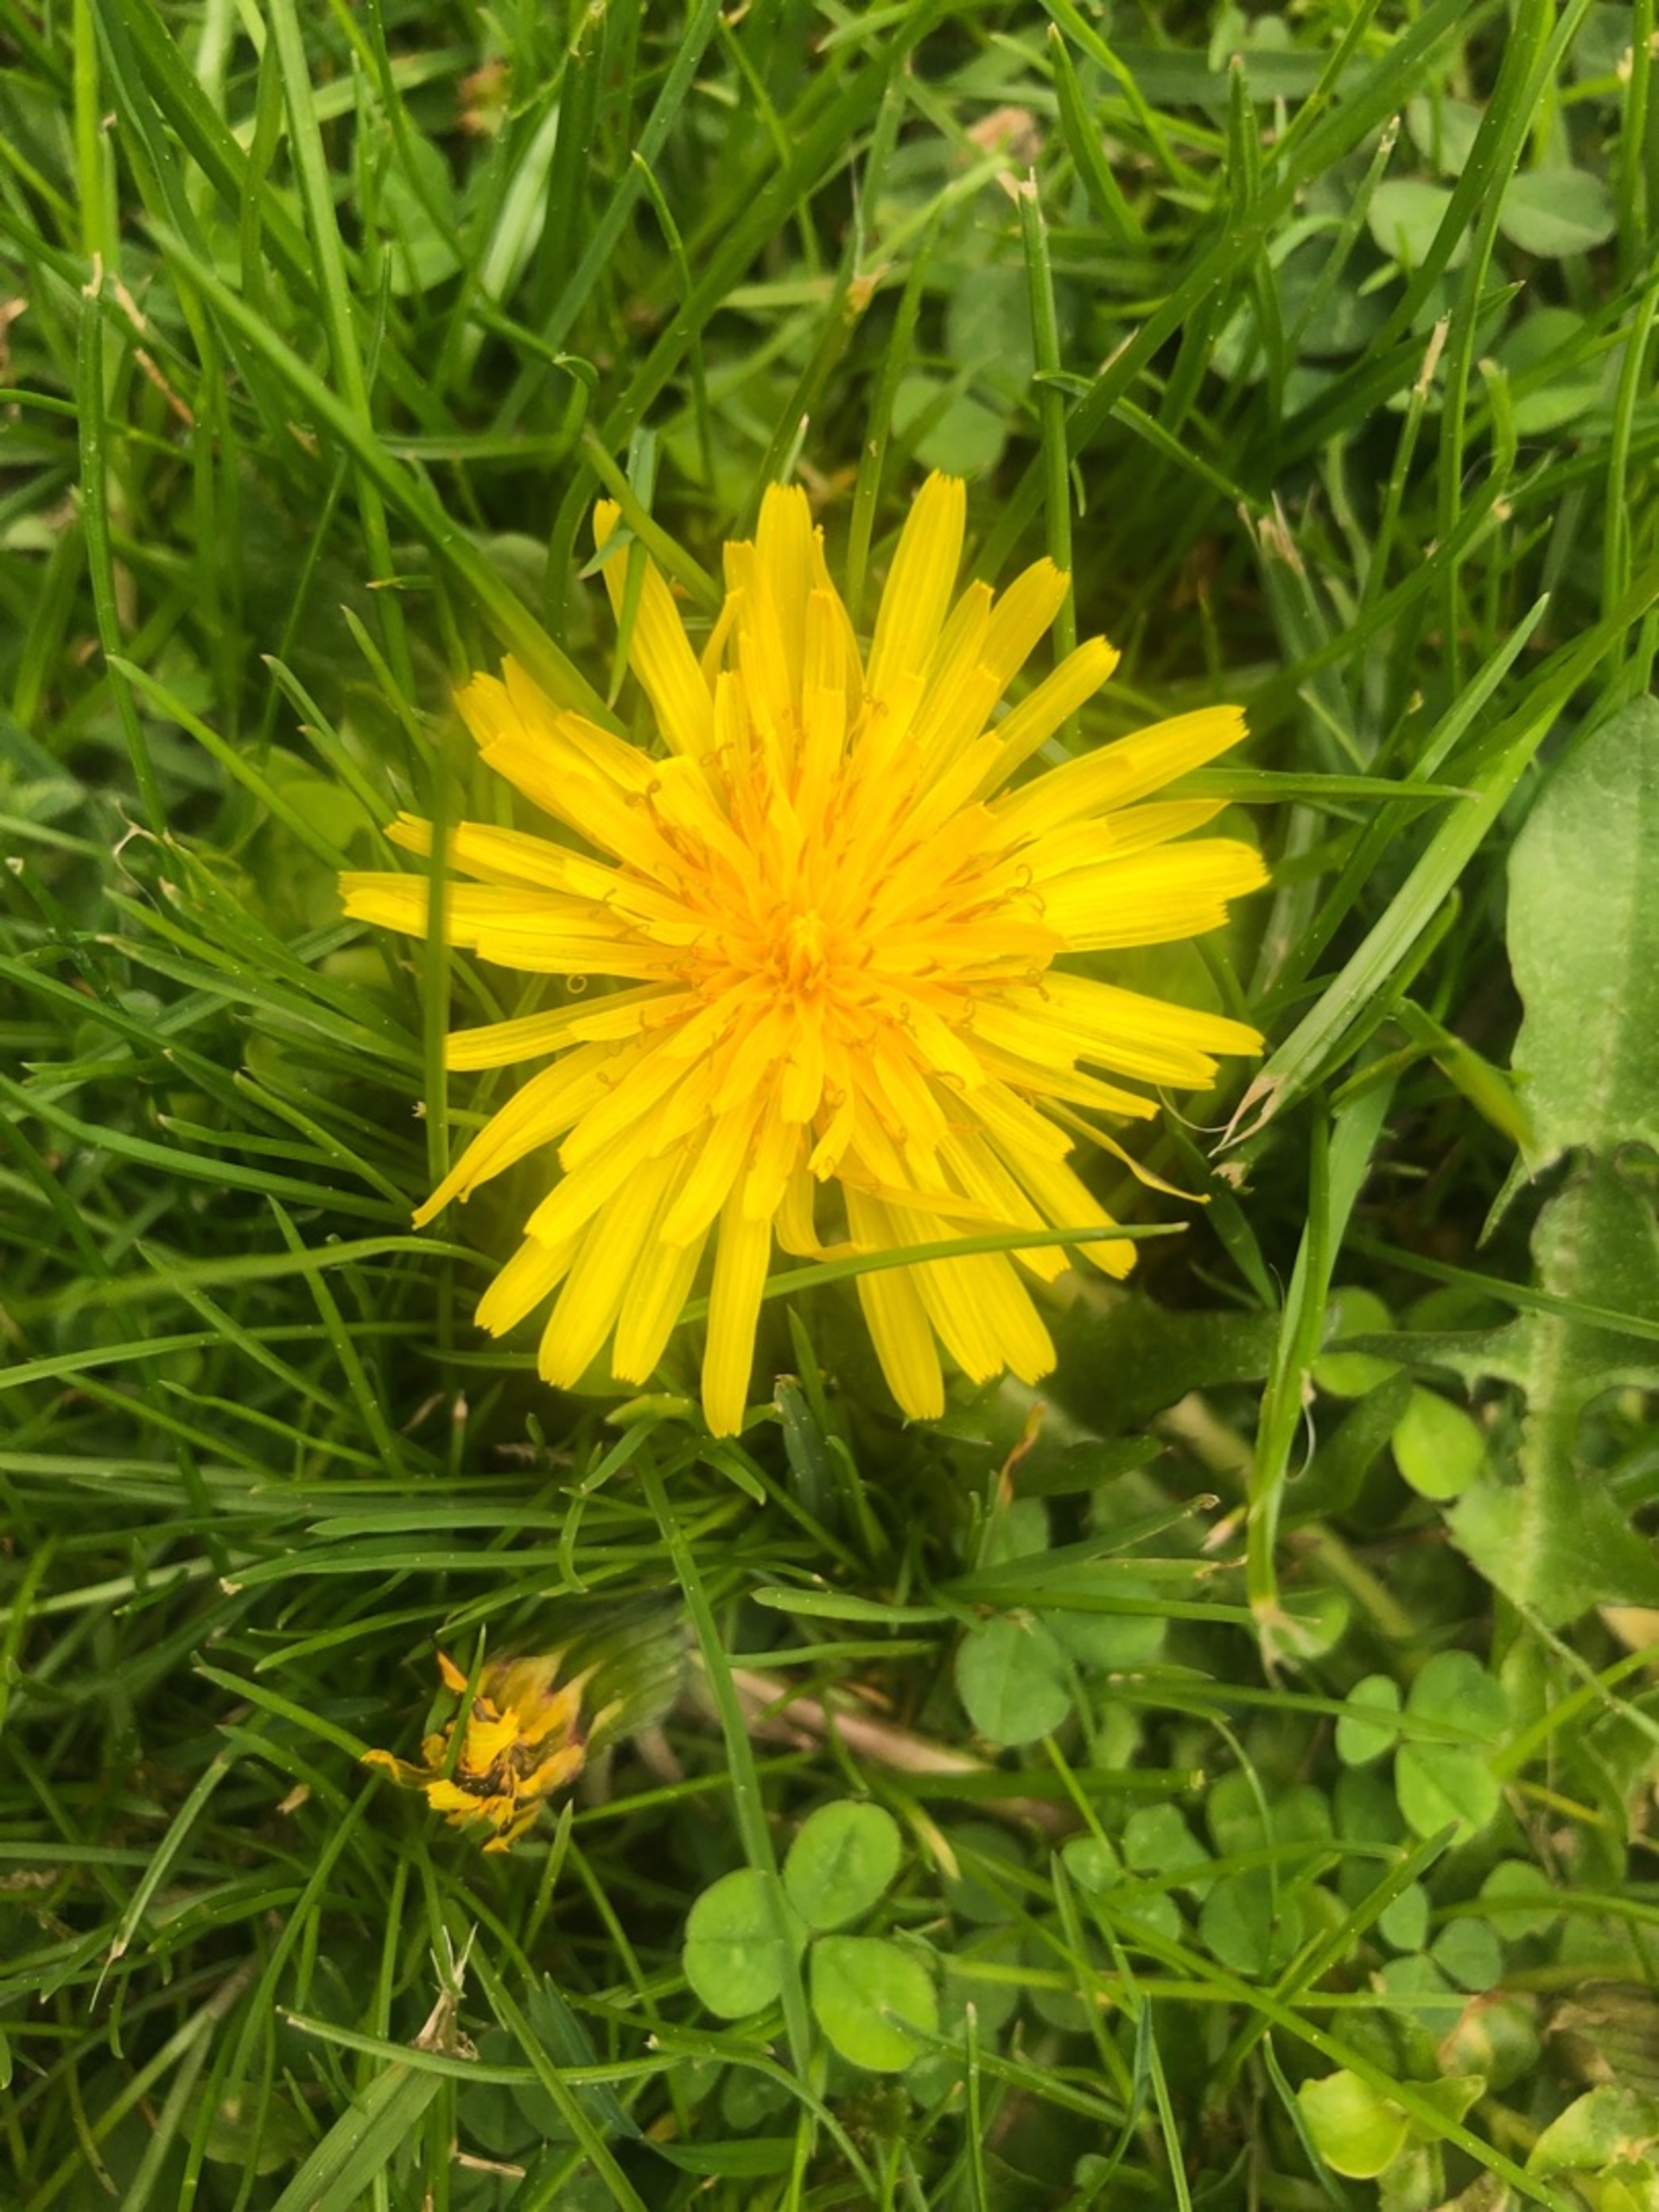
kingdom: Plantae
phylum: Tracheophyta
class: Magnoliopsida
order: Asterales
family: Asteraceae
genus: Taraxacum
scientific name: Taraxacum
